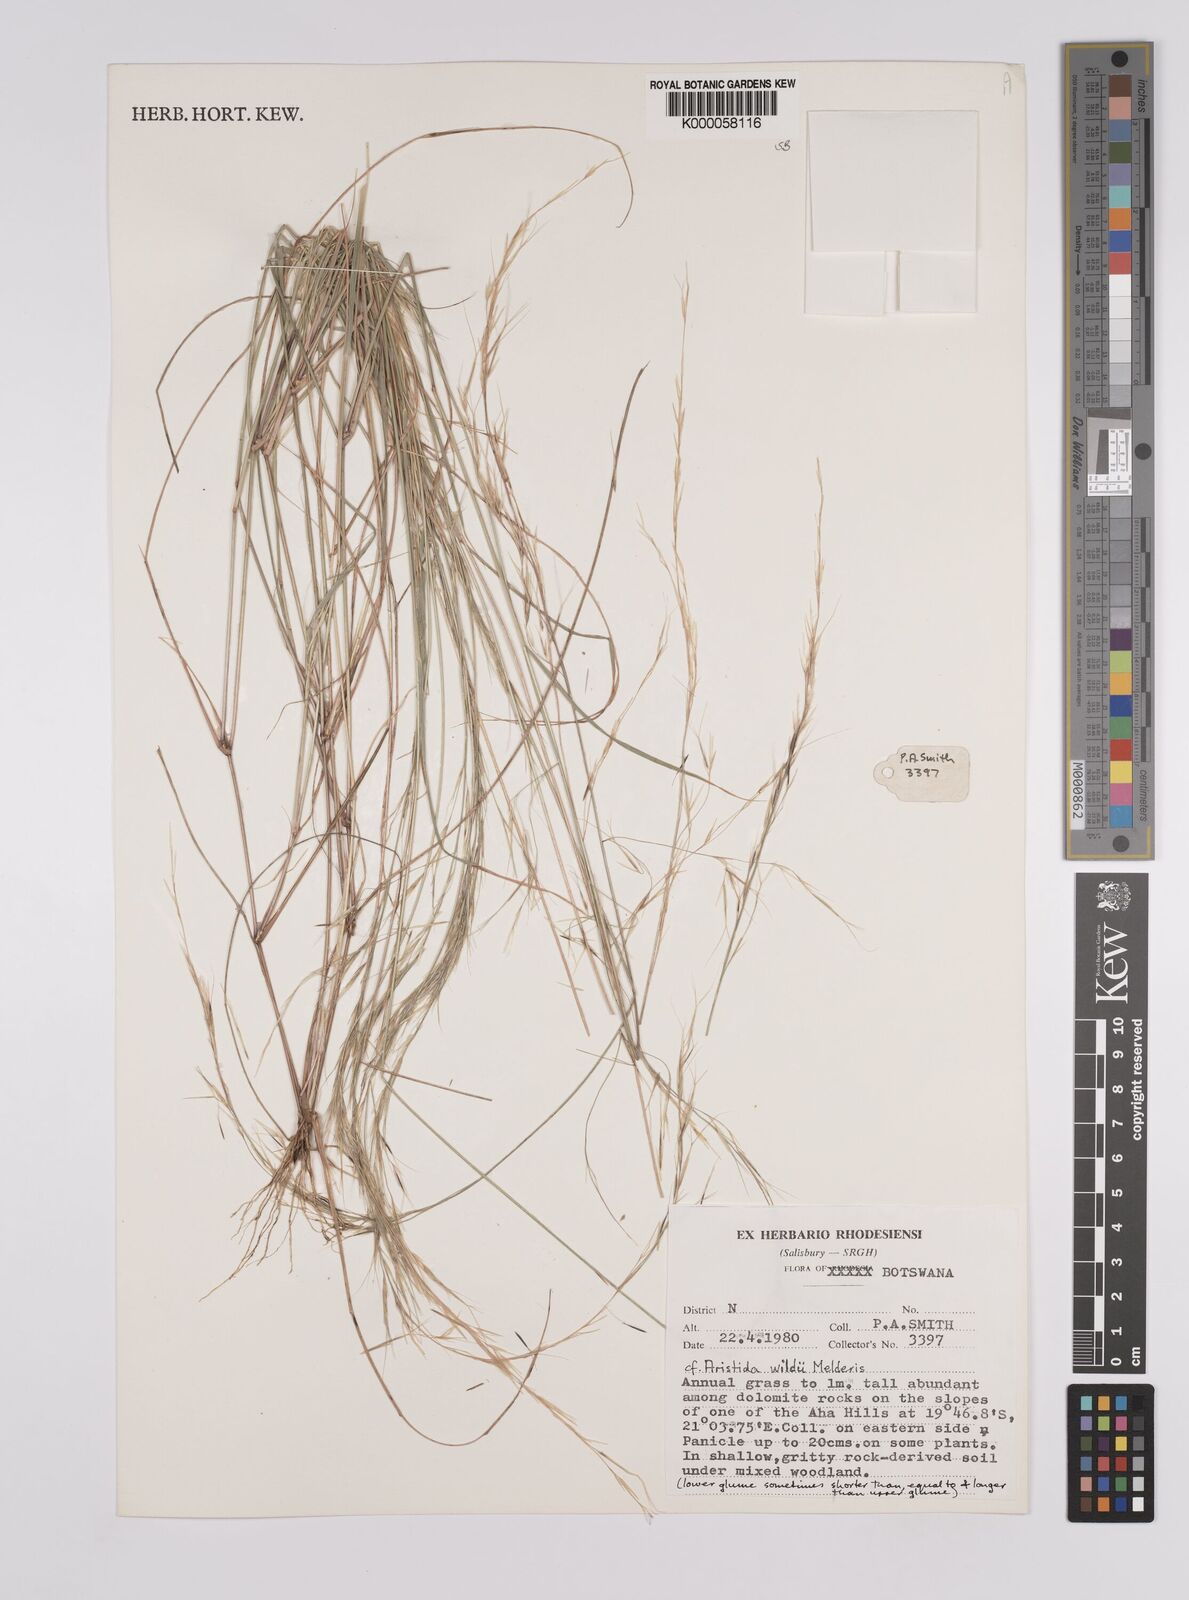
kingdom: Plantae
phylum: Tracheophyta
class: Liliopsida
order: Poales
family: Poaceae
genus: Aristida
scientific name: Aristida wildii
